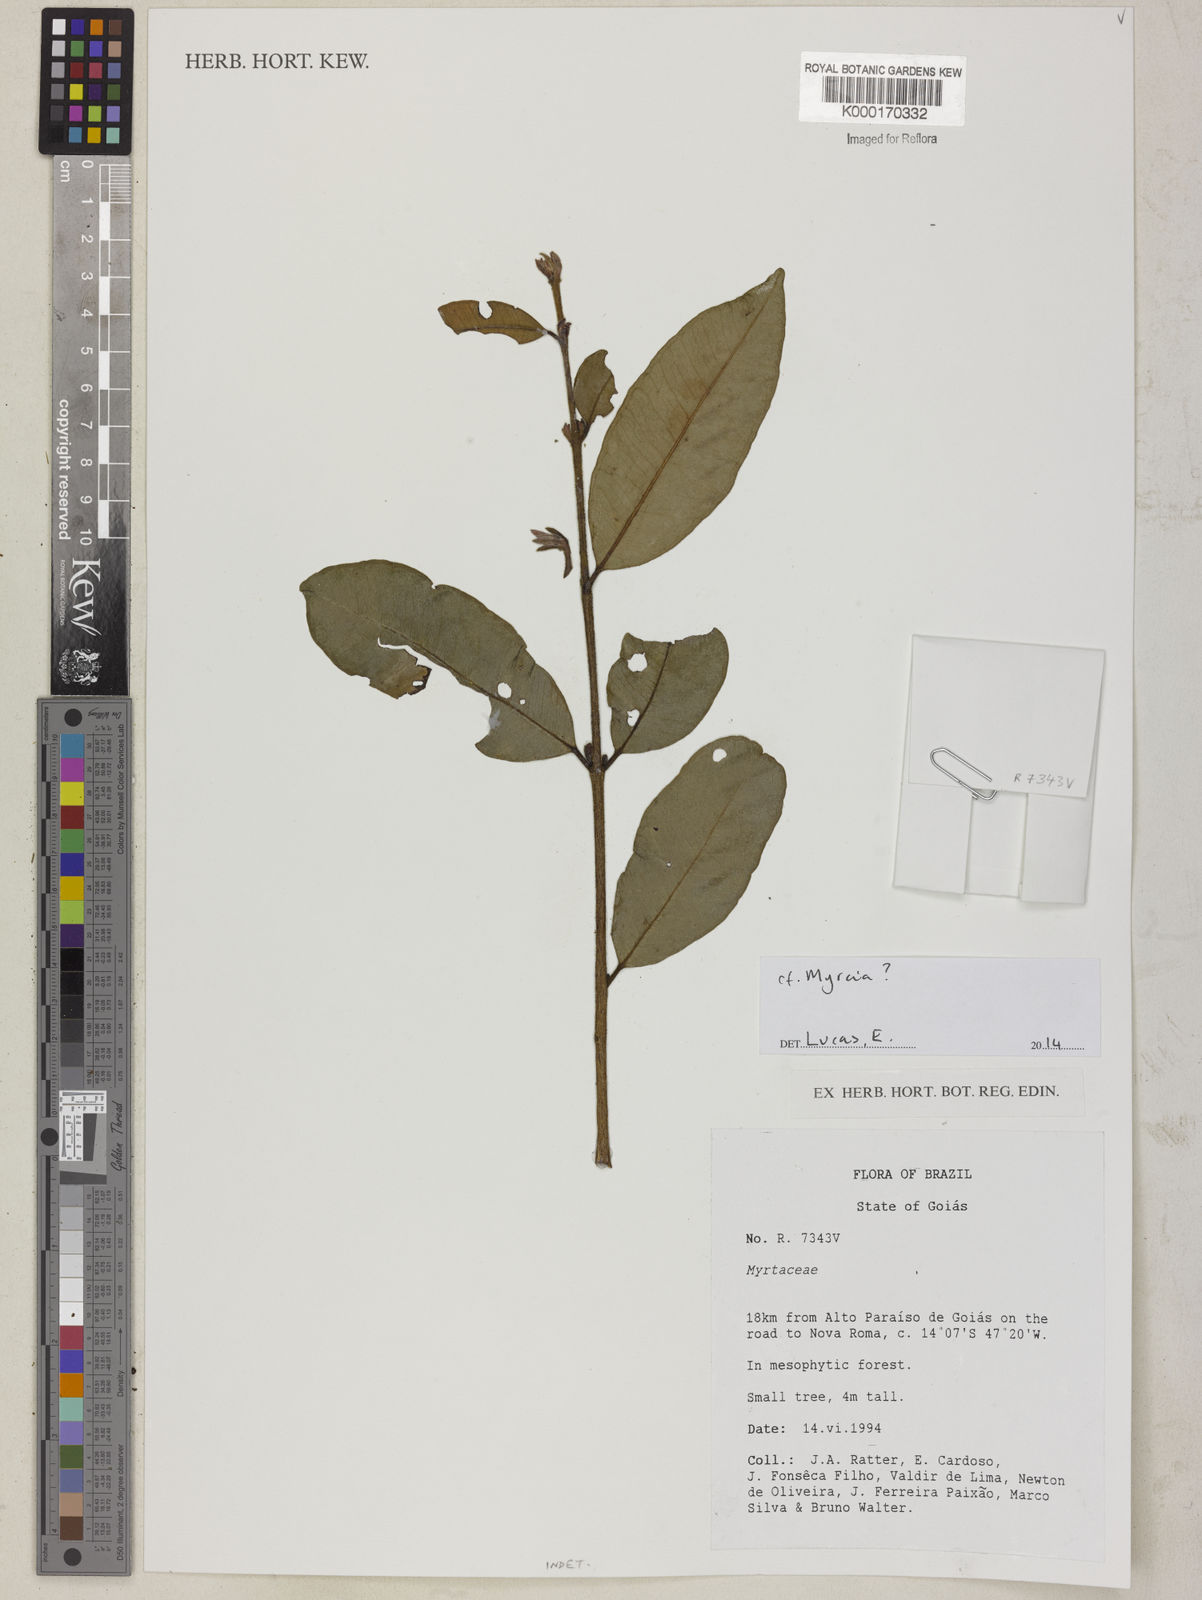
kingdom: Plantae
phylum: Tracheophyta
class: Magnoliopsida
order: Myrtales
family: Myrtaceae
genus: Myrcia
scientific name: Myrcia
